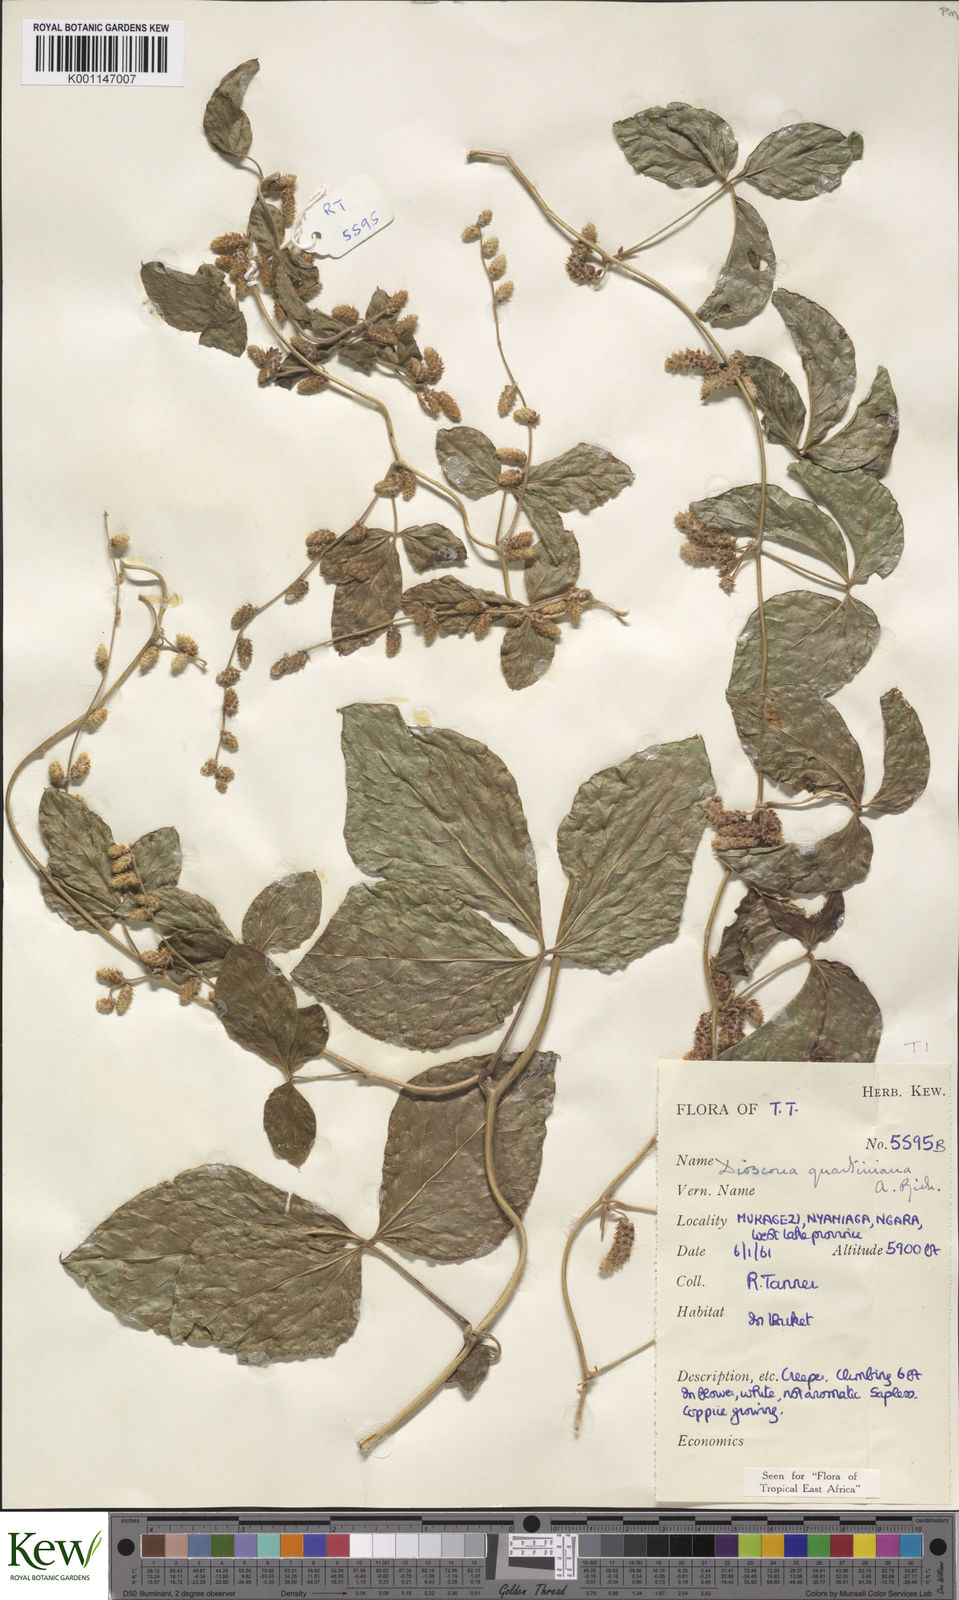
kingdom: Plantae
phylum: Tracheophyta
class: Liliopsida
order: Dioscoreales
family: Dioscoreaceae
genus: Dioscorea
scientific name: Dioscorea quartiniana
